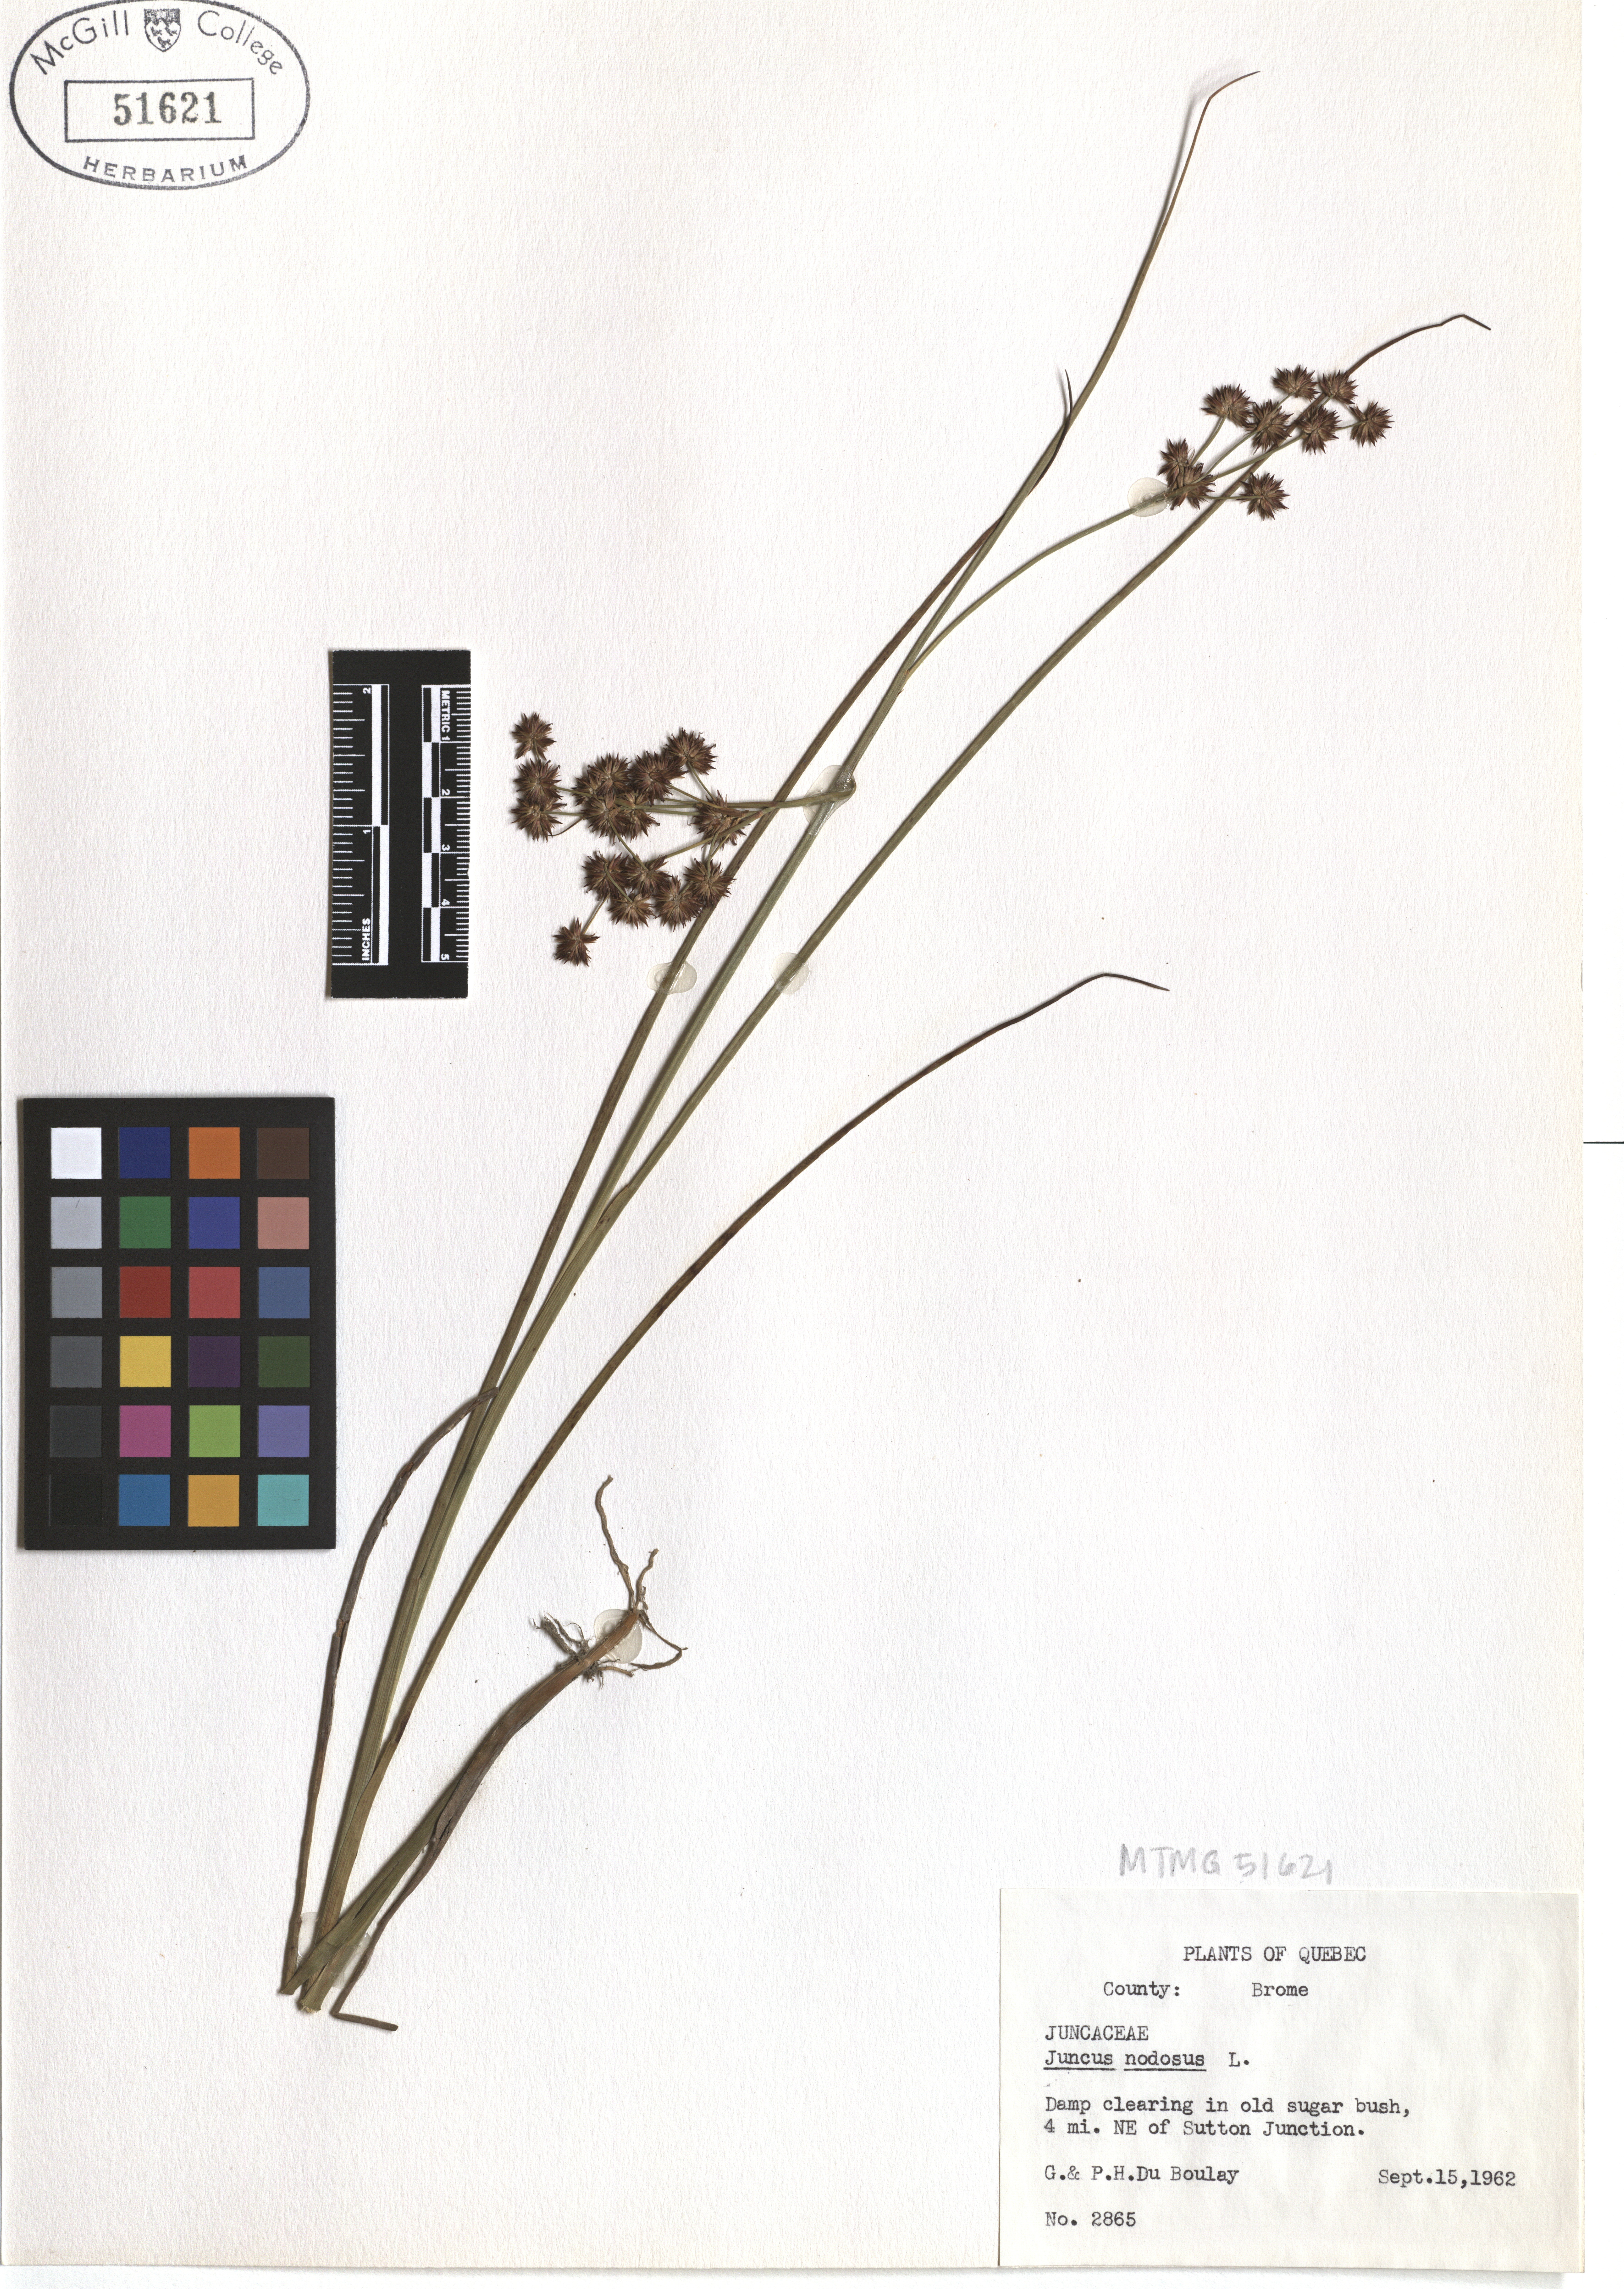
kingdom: Plantae
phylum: Tracheophyta
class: Liliopsida
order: Poales
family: Juncaceae
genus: Juncus
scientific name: Juncus nodosus
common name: Knotted rush
